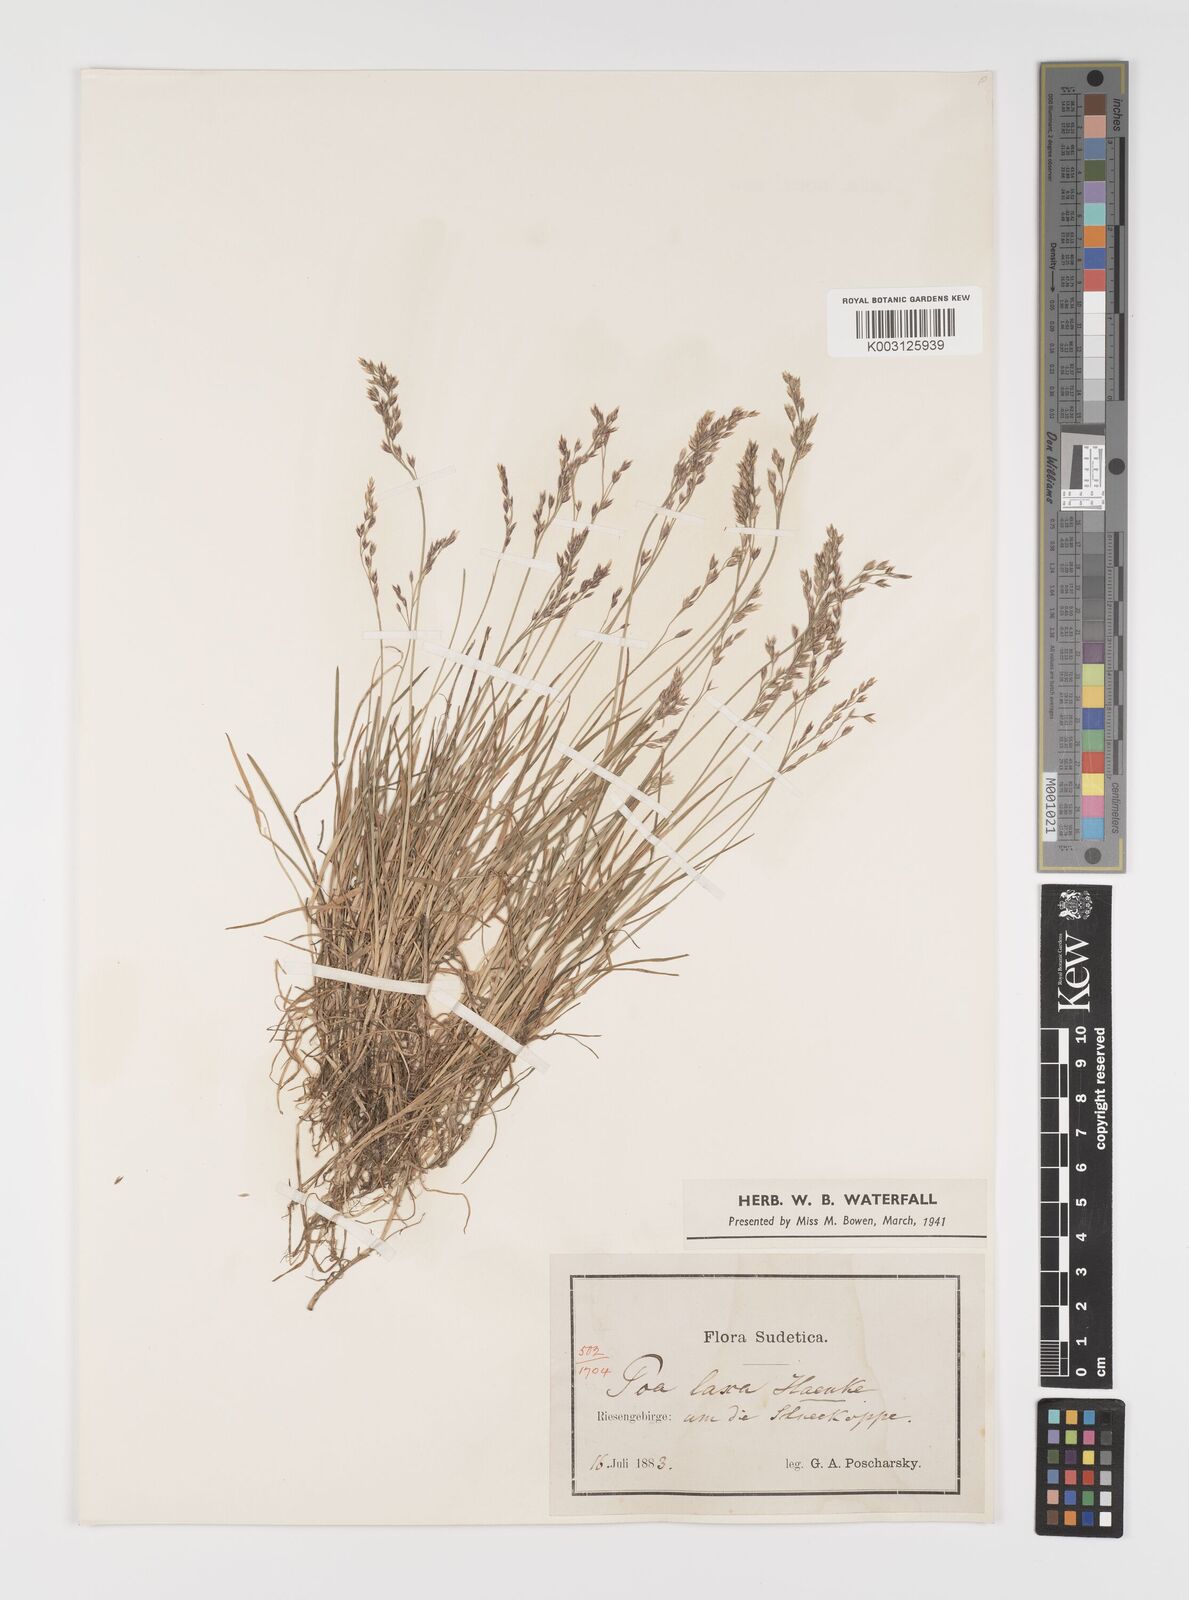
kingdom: Plantae
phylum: Tracheophyta
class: Liliopsida
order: Poales
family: Poaceae
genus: Poa
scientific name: Poa laxa
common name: Lax bluegrass
